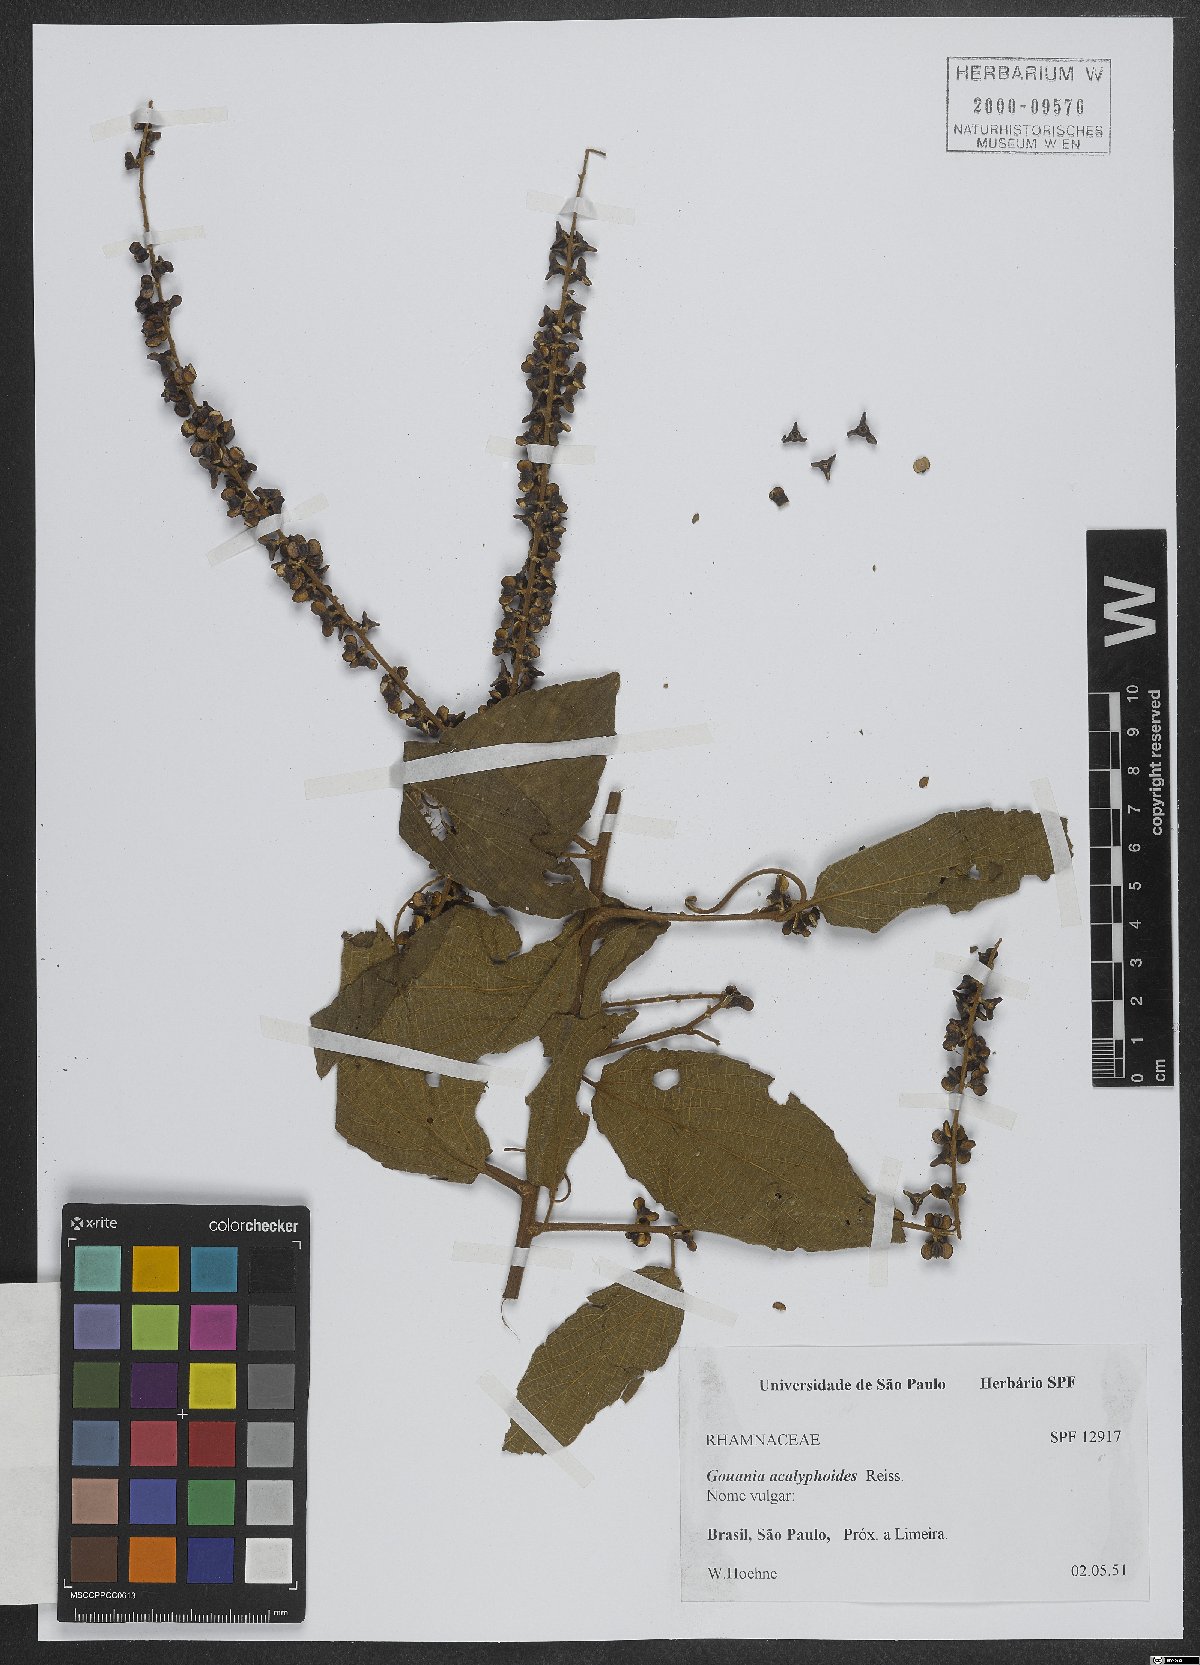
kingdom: Plantae
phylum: Tracheophyta
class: Magnoliopsida
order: Rosales
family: Rhamnaceae
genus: Gouania
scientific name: Gouania acalyphoides
